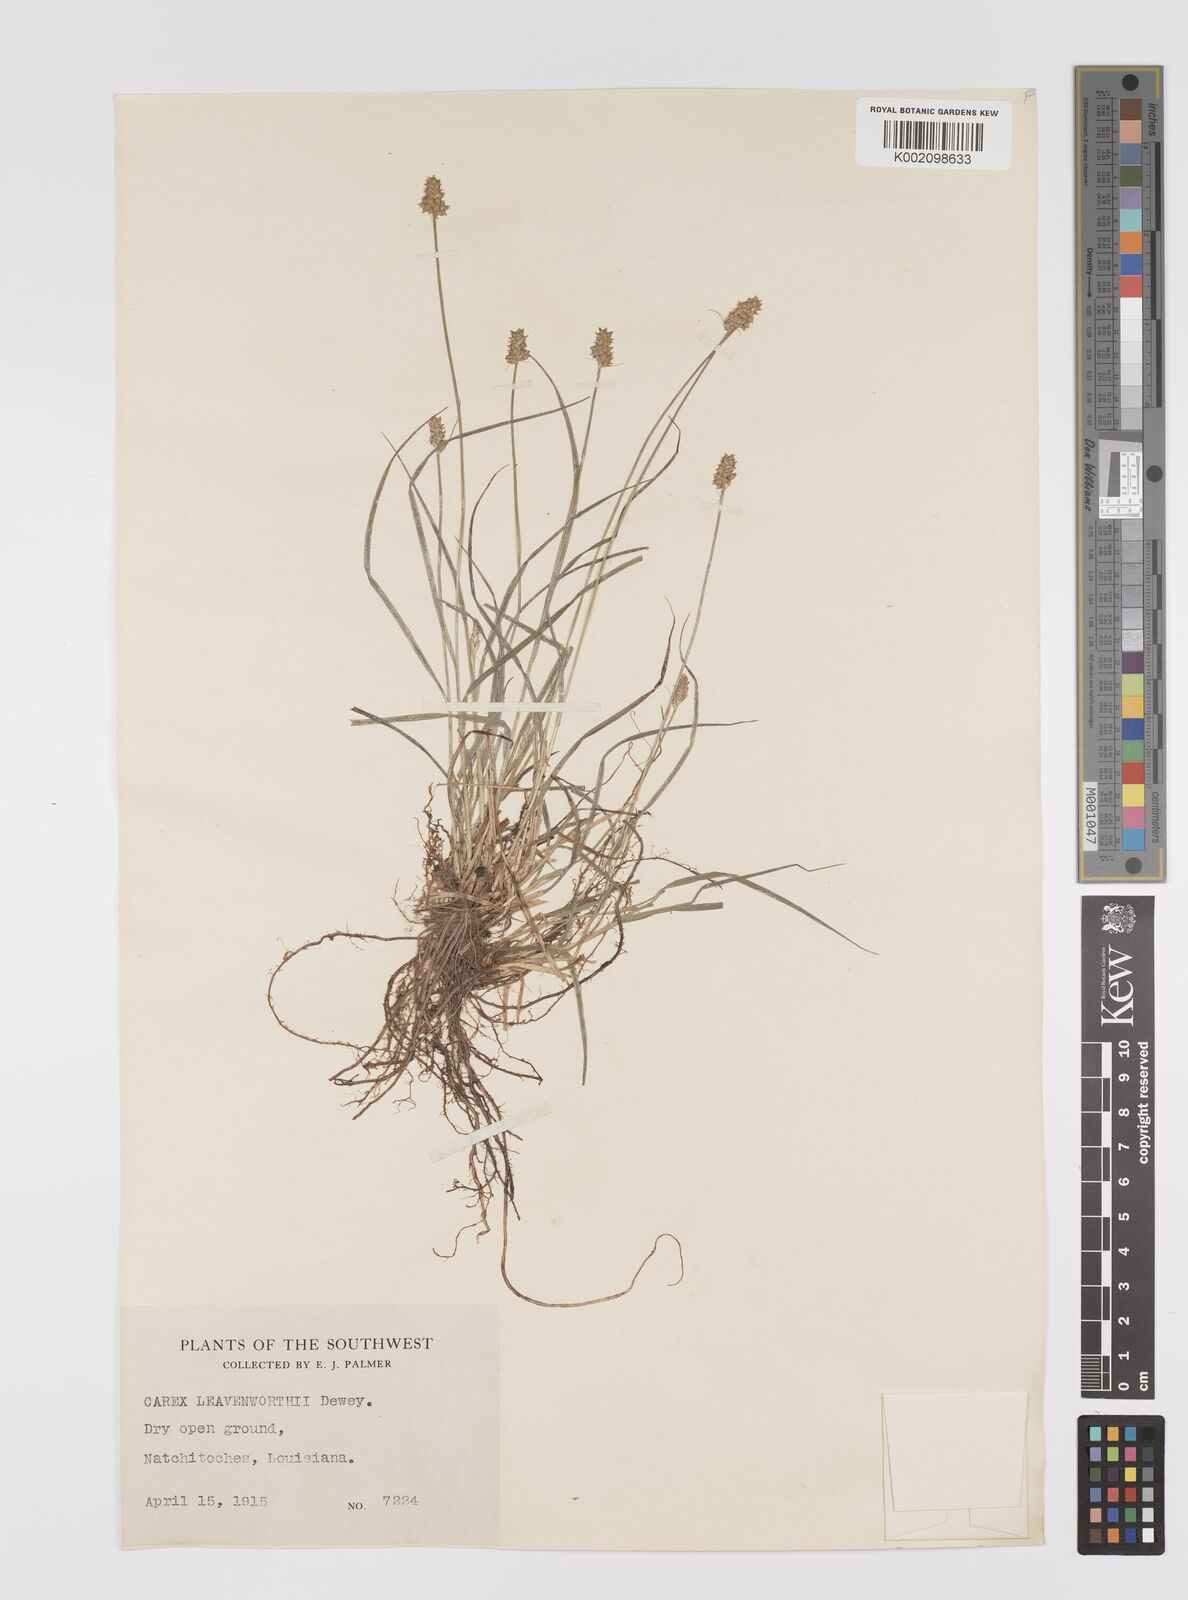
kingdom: Plantae
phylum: Tracheophyta
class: Liliopsida
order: Poales
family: Cyperaceae
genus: Carex
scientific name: Carex leavenworthii
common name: Leavenworth's bracted sedge
